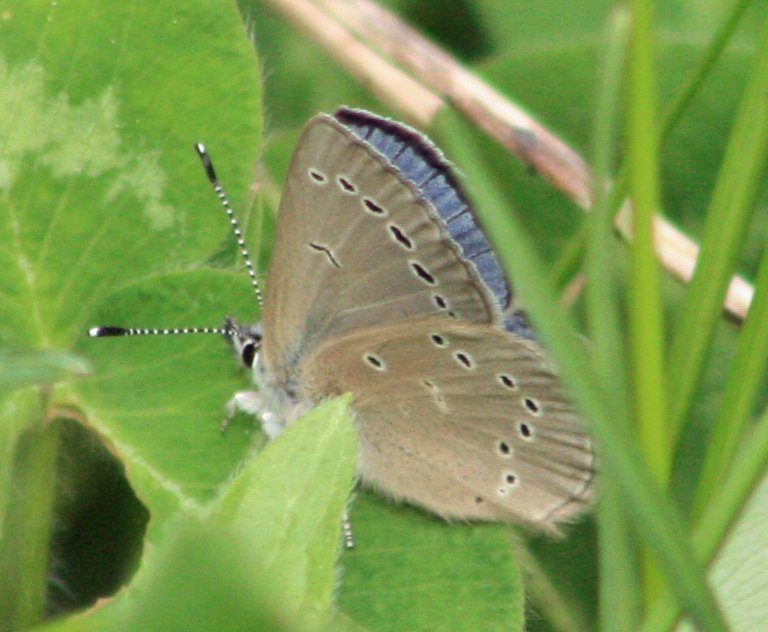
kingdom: Animalia
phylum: Arthropoda
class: Insecta
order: Lepidoptera
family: Lycaenidae
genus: Glaucopsyche
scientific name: Glaucopsyche lygdamus
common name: Silvery Blue
